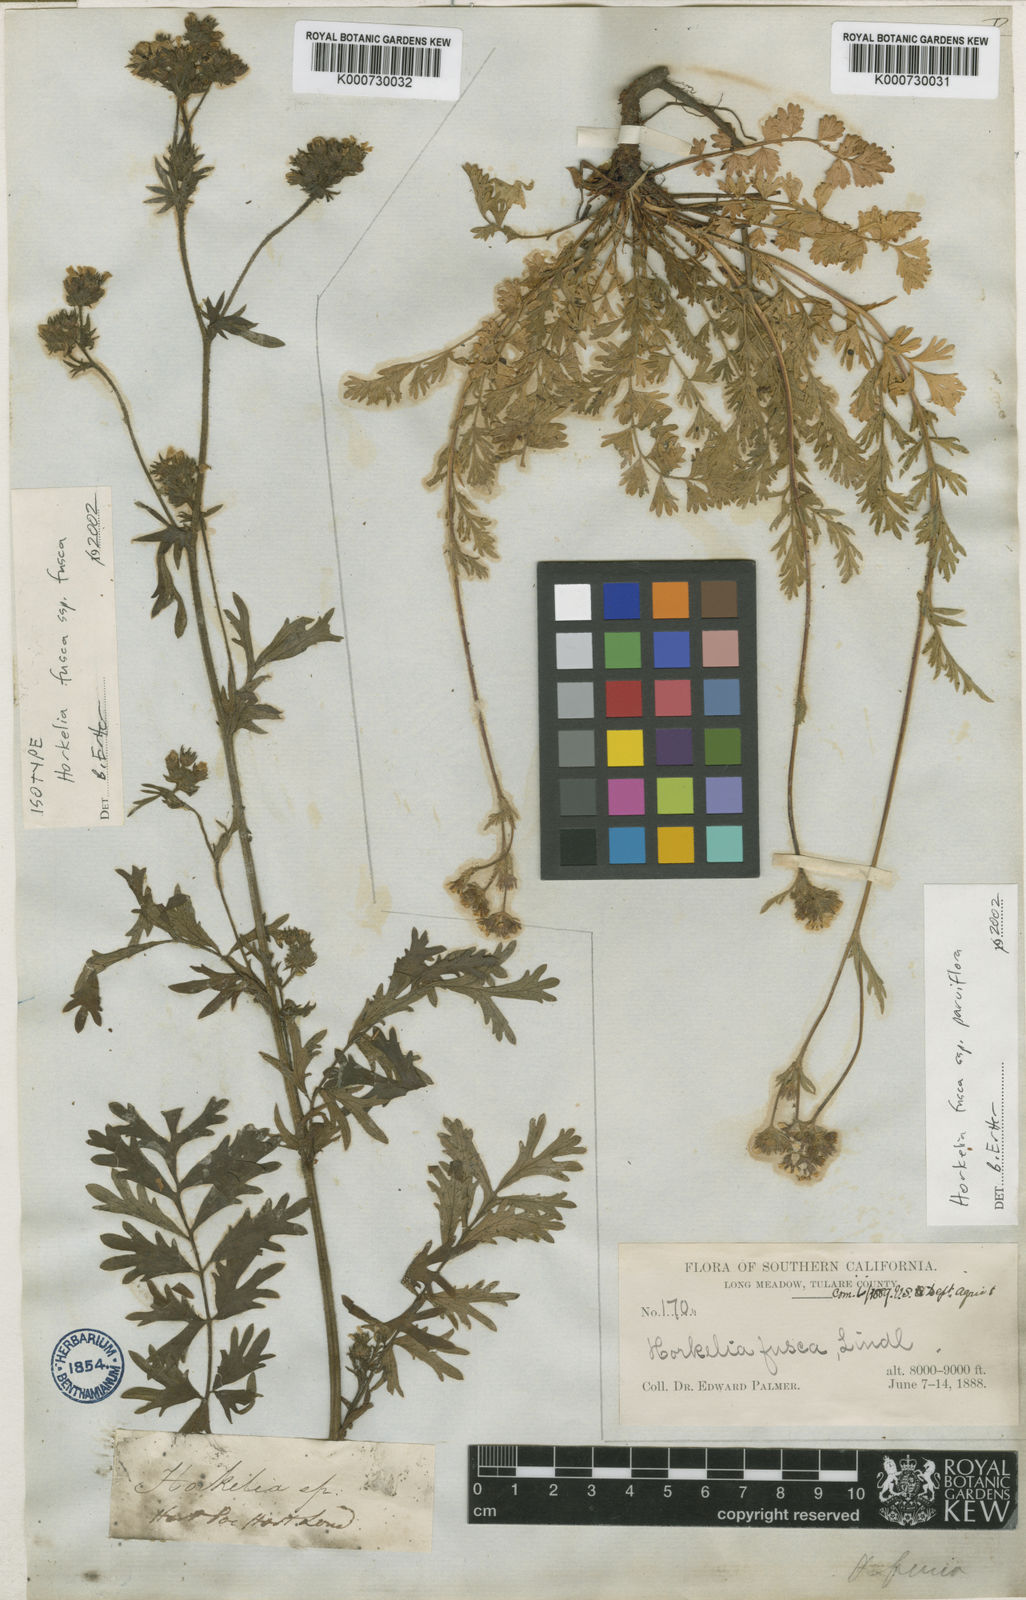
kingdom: Plantae
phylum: Tracheophyta
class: Magnoliopsida
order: Rosales
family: Rosaceae
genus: Potentilla
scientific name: Potentilla douglasii
